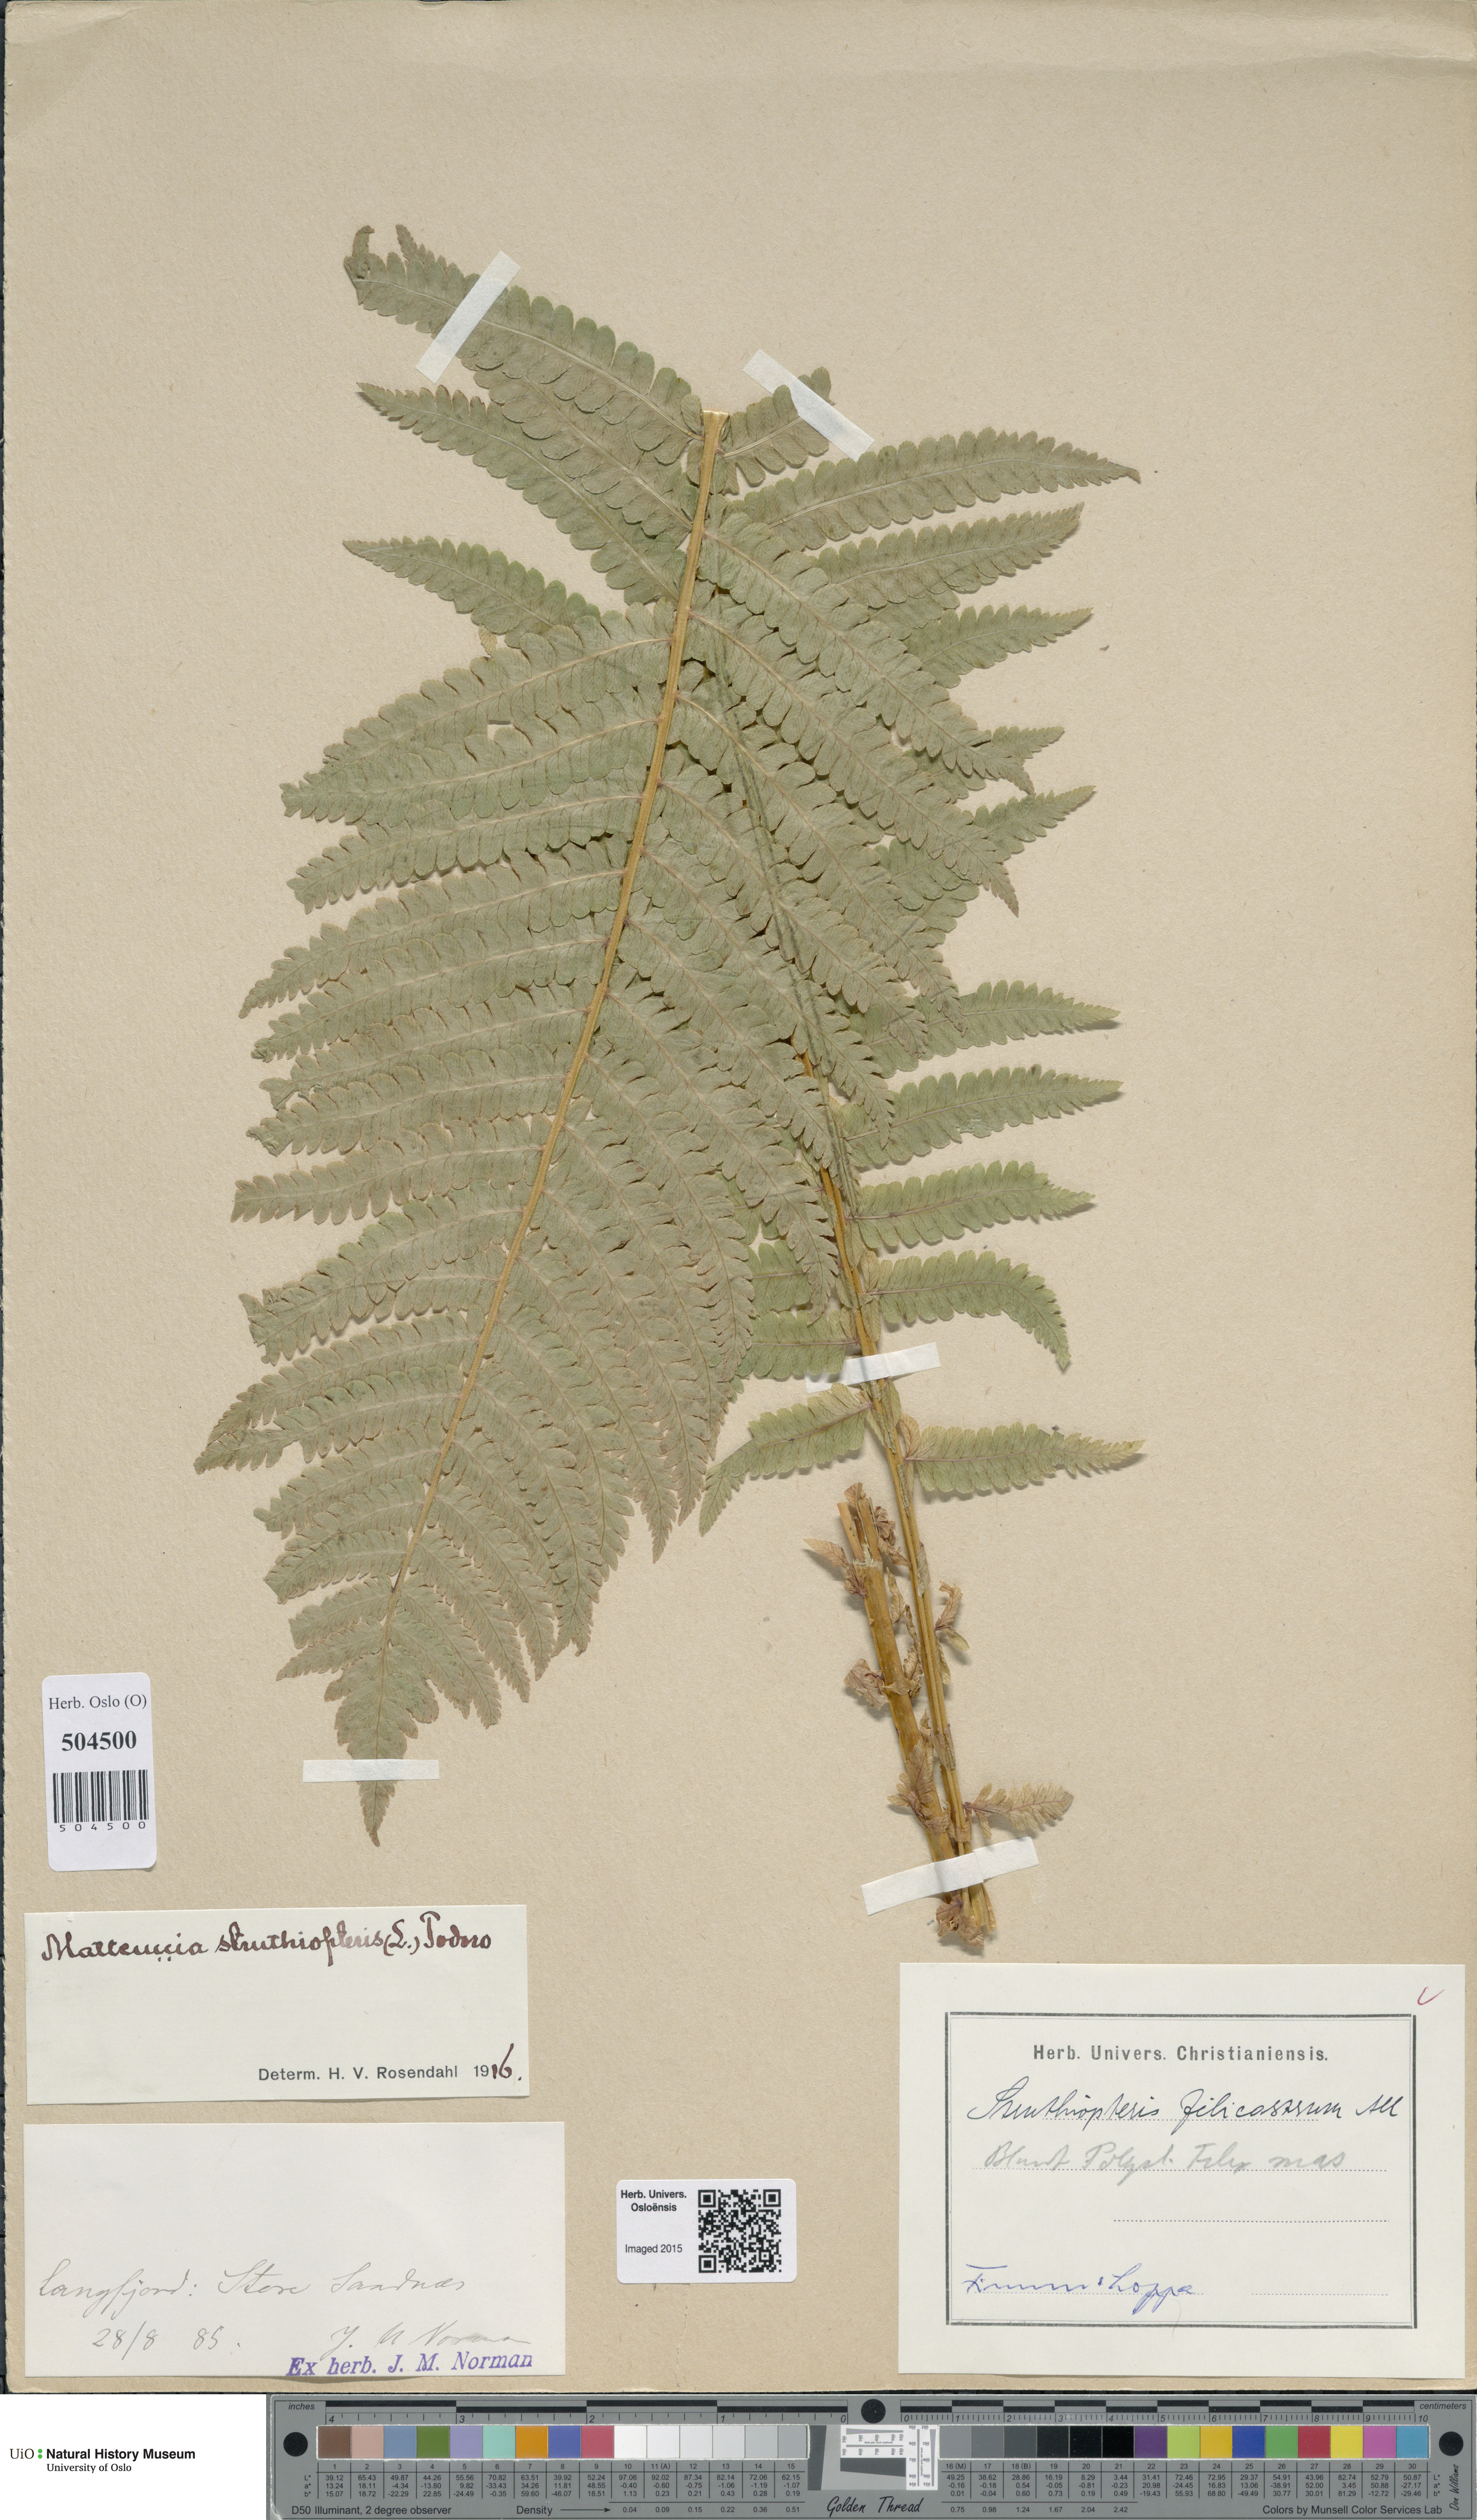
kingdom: Plantae
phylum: Tracheophyta
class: Polypodiopsida
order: Polypodiales
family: Onocleaceae
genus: Matteuccia
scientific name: Matteuccia struthiopteris
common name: Ostrich fern
